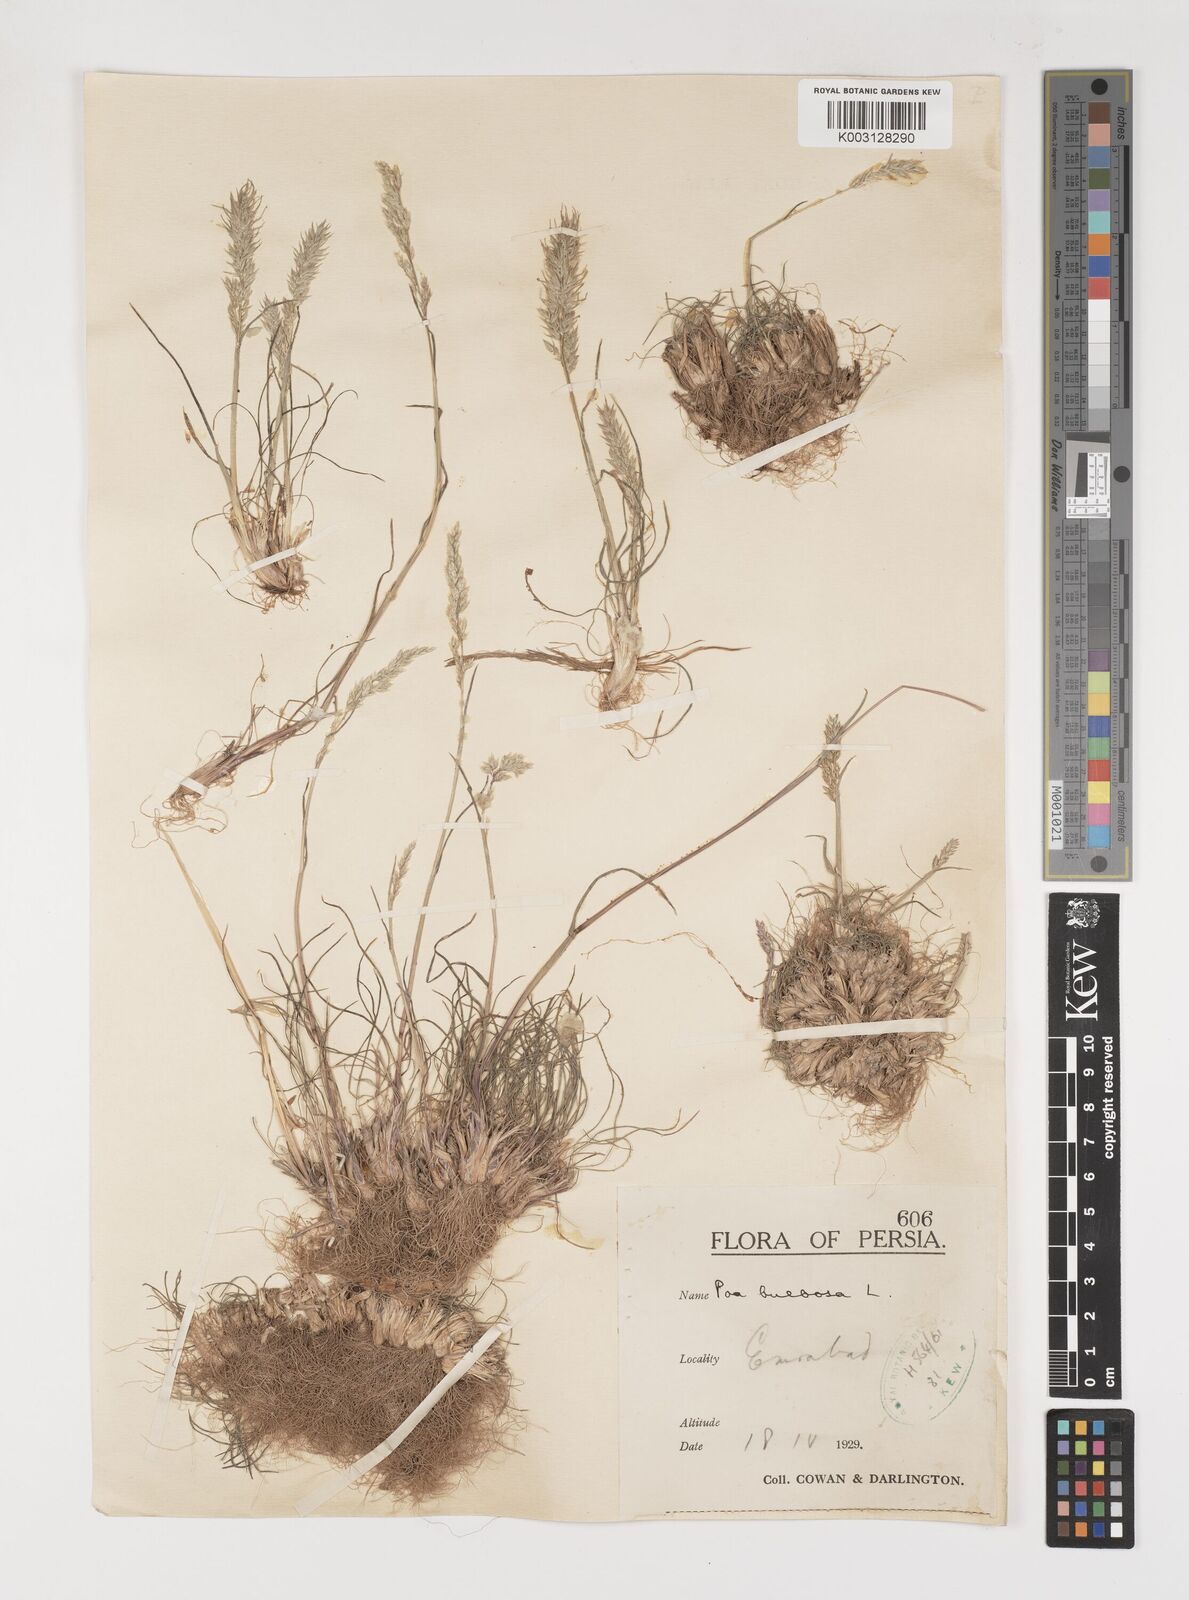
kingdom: Plantae
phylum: Tracheophyta
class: Liliopsida
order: Poales
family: Poaceae
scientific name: Poaceae
